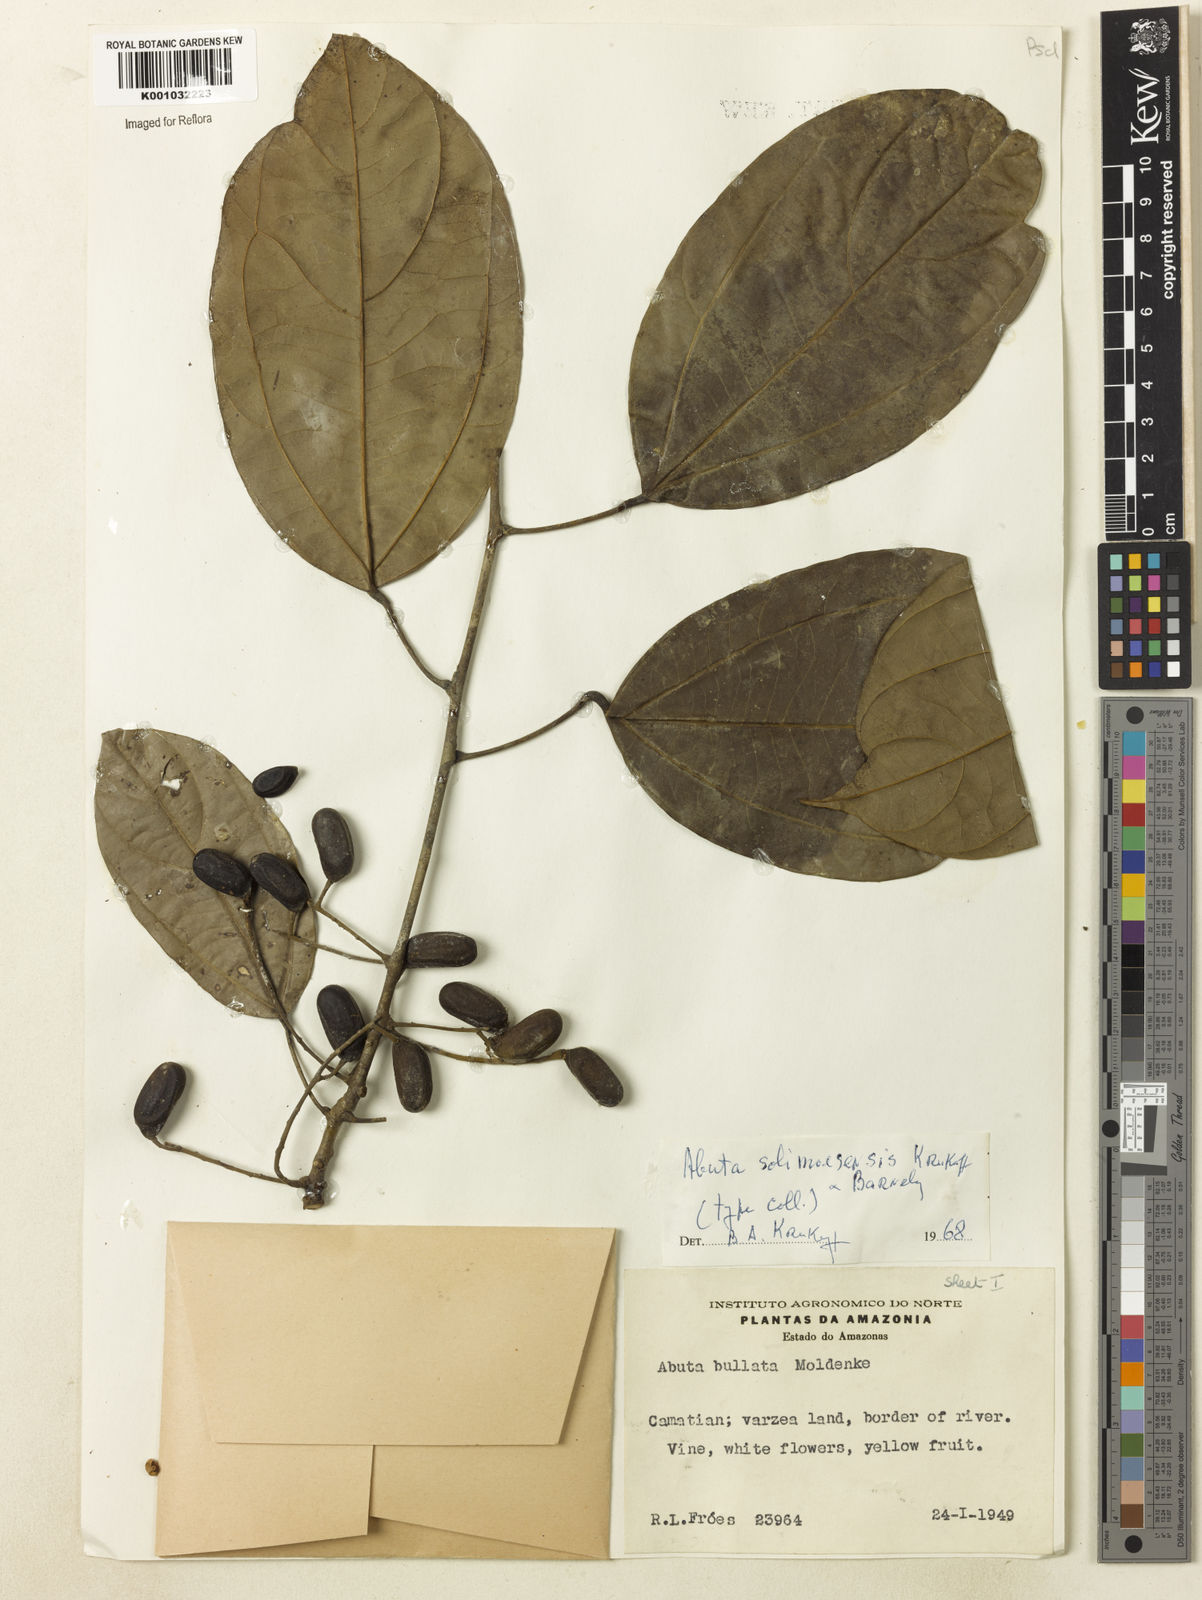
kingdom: Plantae
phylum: Tracheophyta
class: Magnoliopsida
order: Ranunculales
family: Menispermaceae
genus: Abuta
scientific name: Abuta solimoesensis
